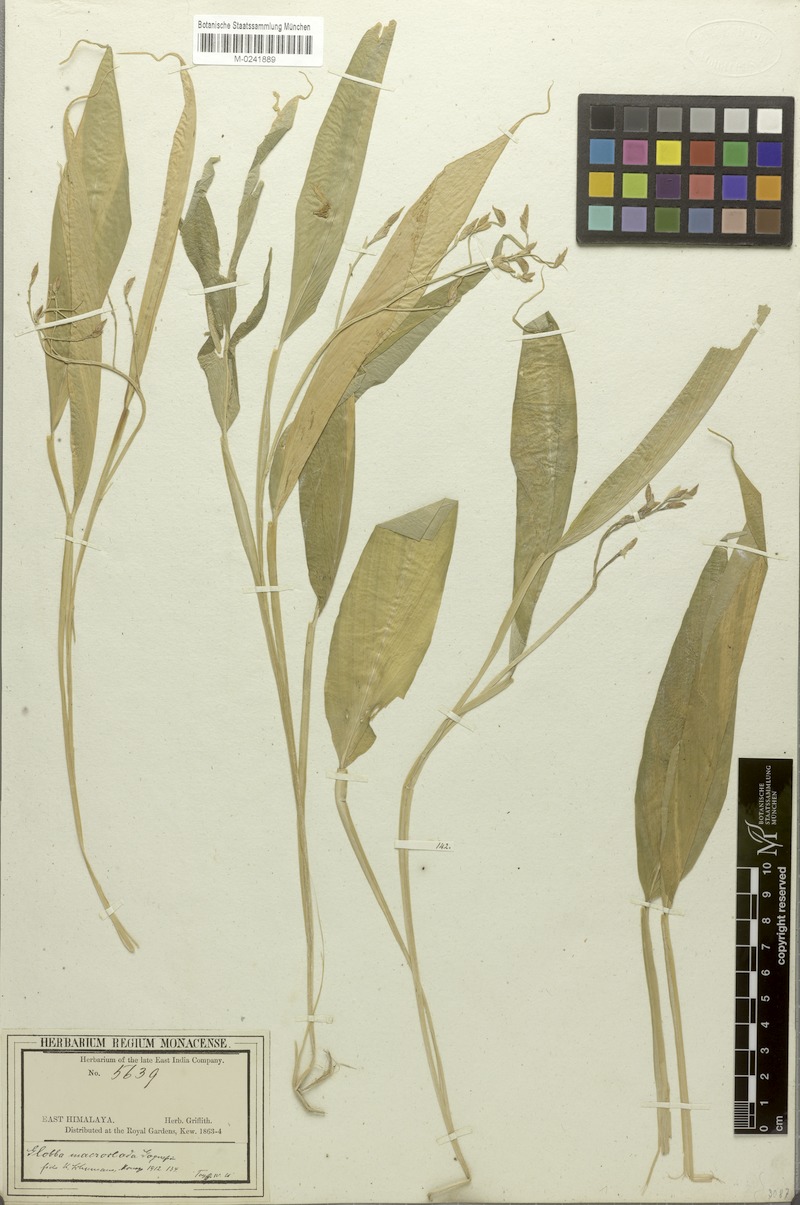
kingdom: Plantae
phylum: Tracheophyta
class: Liliopsida
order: Zingiberales
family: Zingiberaceae
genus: Globba
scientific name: Globba macroclada
